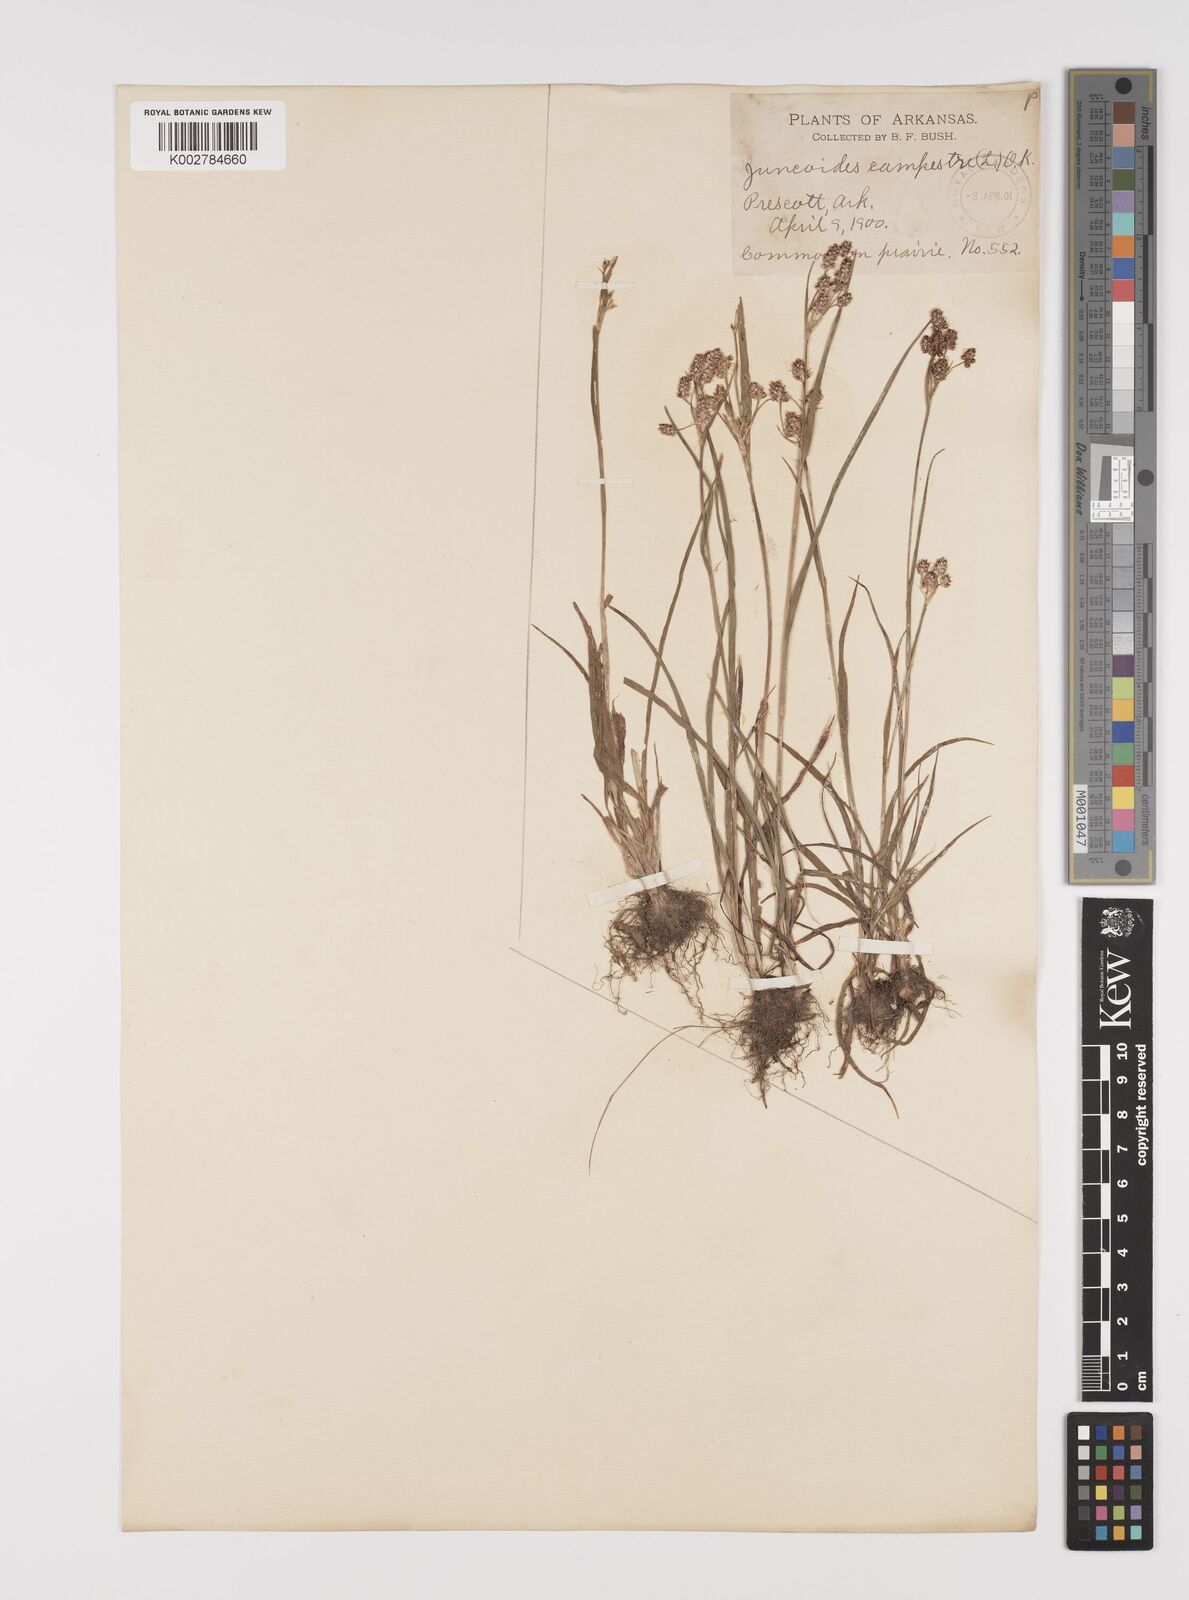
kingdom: Plantae
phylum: Tracheophyta
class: Liliopsida
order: Poales
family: Juncaceae
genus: Luzula
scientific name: Luzula campestris
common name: Field wood-rush
